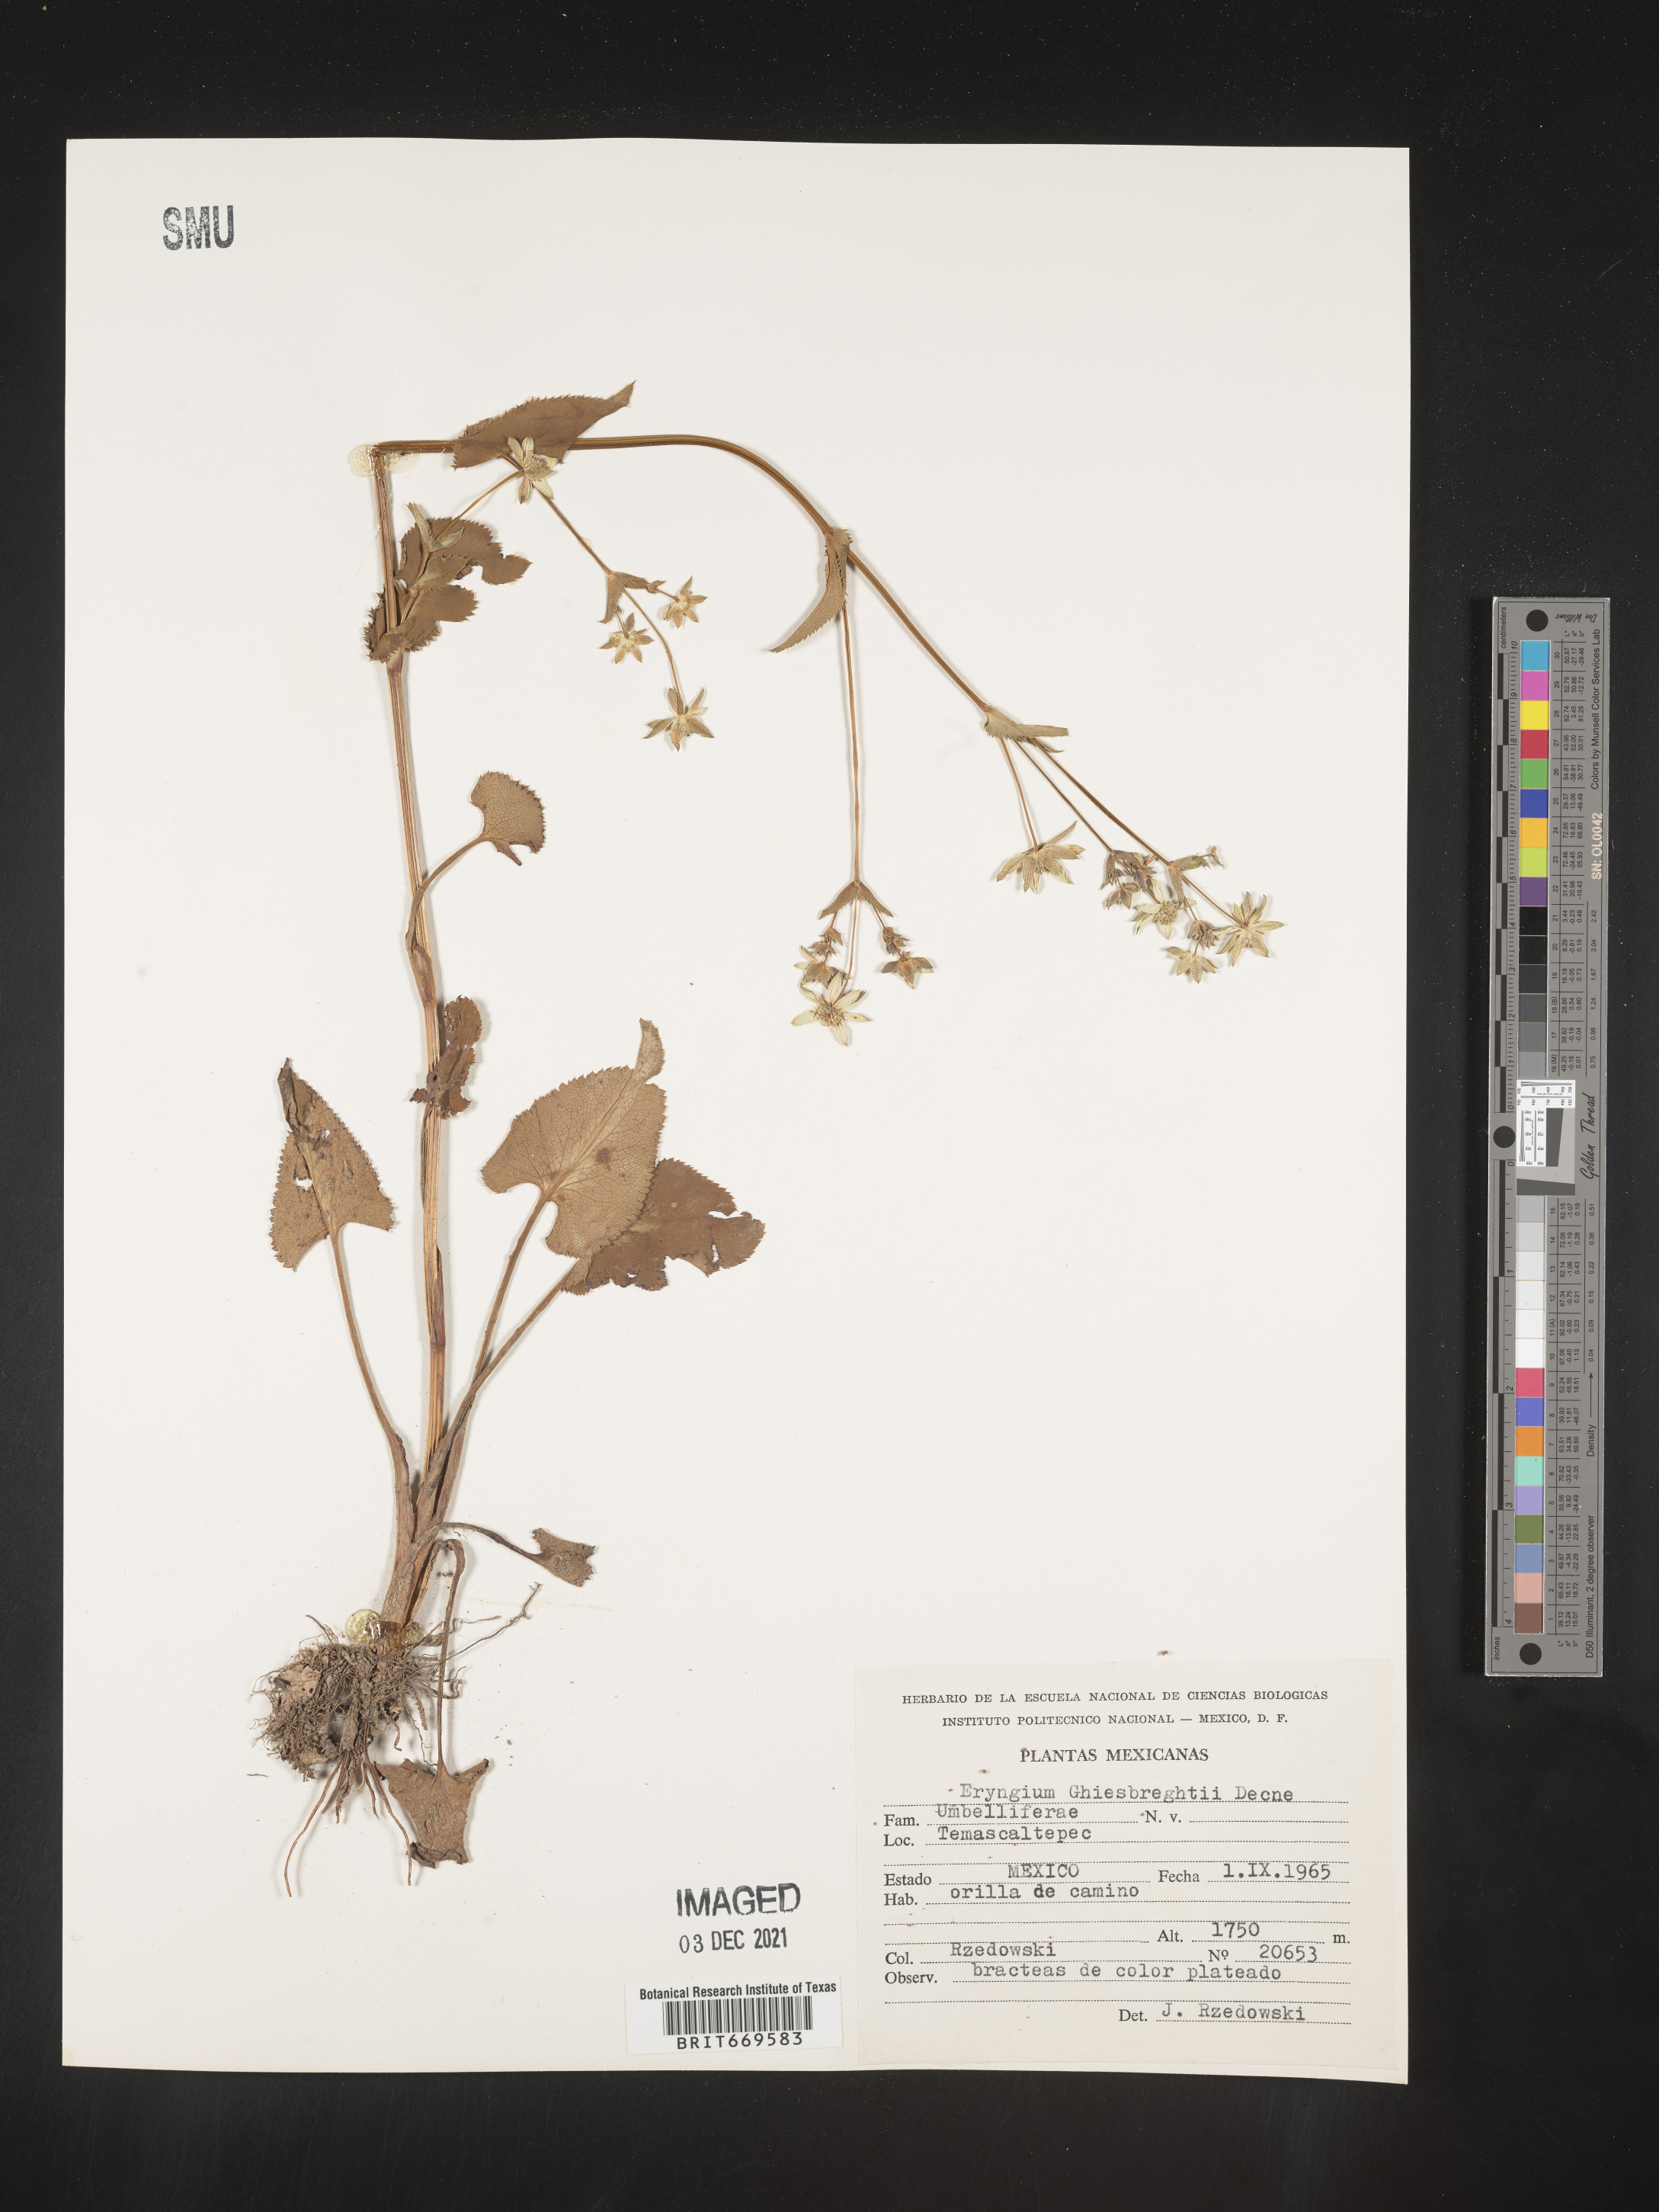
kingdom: Plantae
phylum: Tracheophyta
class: Magnoliopsida
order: Apiales
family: Apiaceae
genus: Eryngium
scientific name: Eryngium
